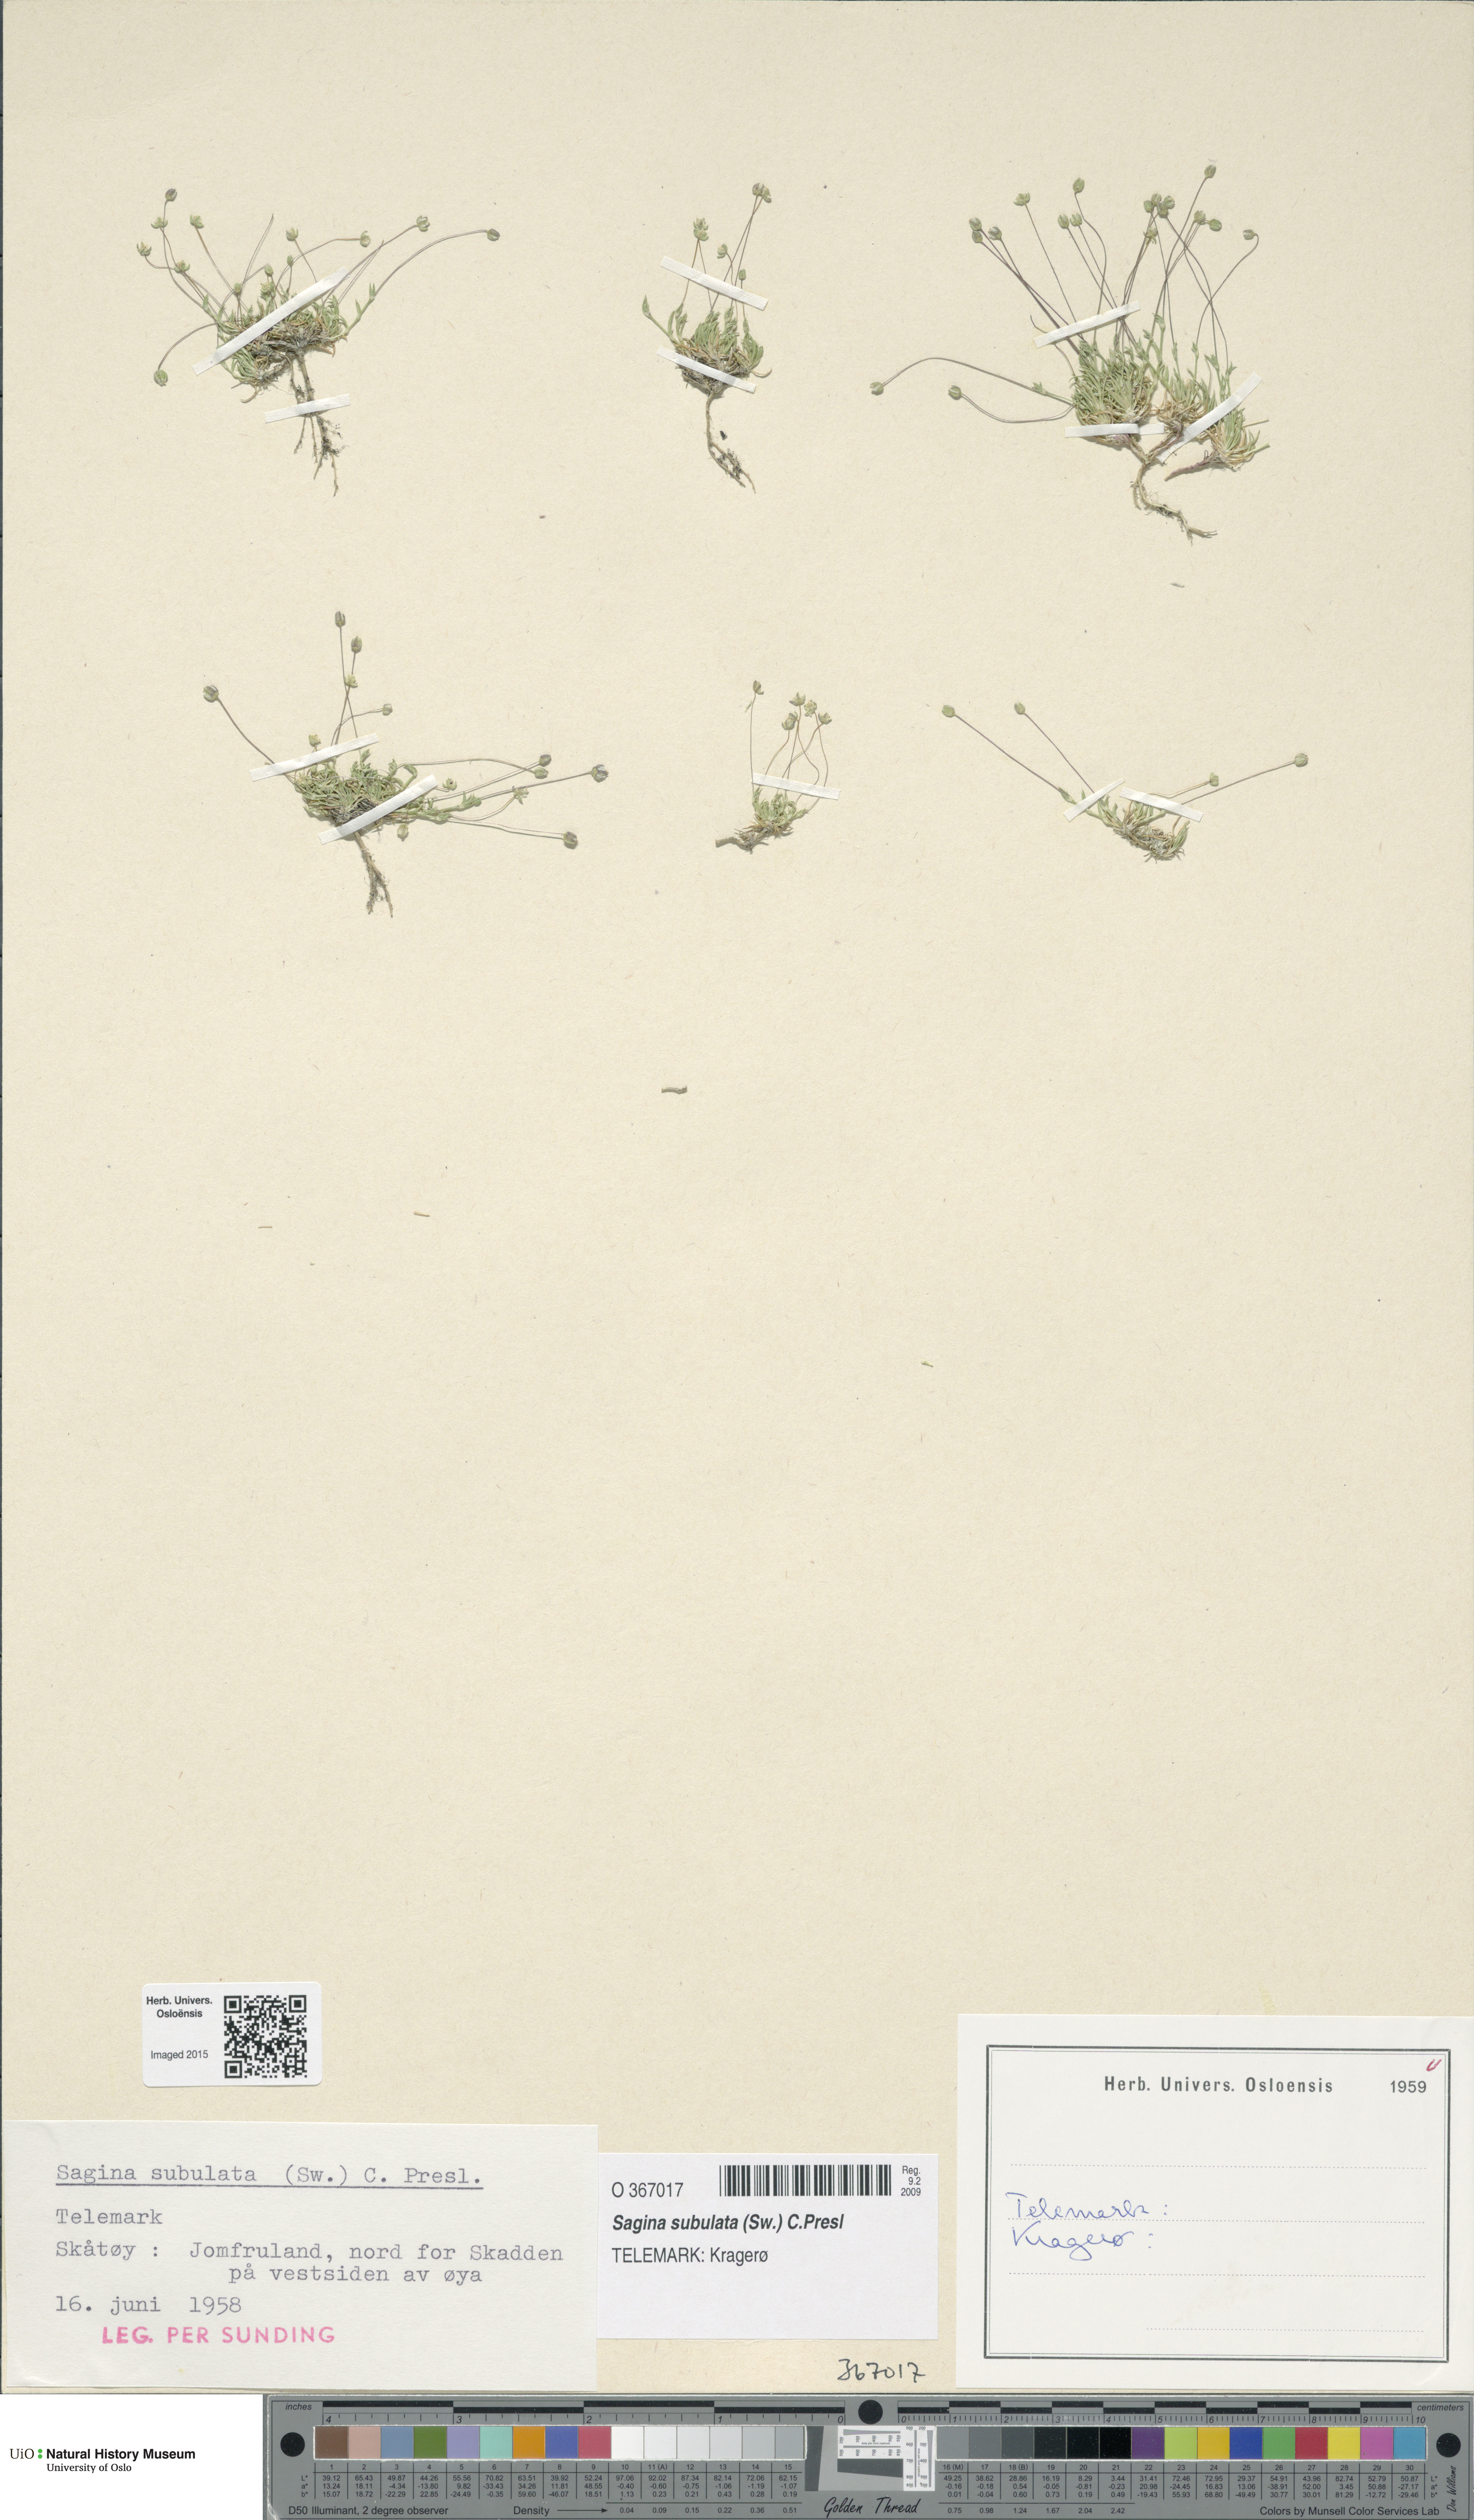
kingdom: Plantae
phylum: Tracheophyta
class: Magnoliopsida
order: Caryophyllales
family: Caryophyllaceae
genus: Sagina
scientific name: Sagina alexandrae
